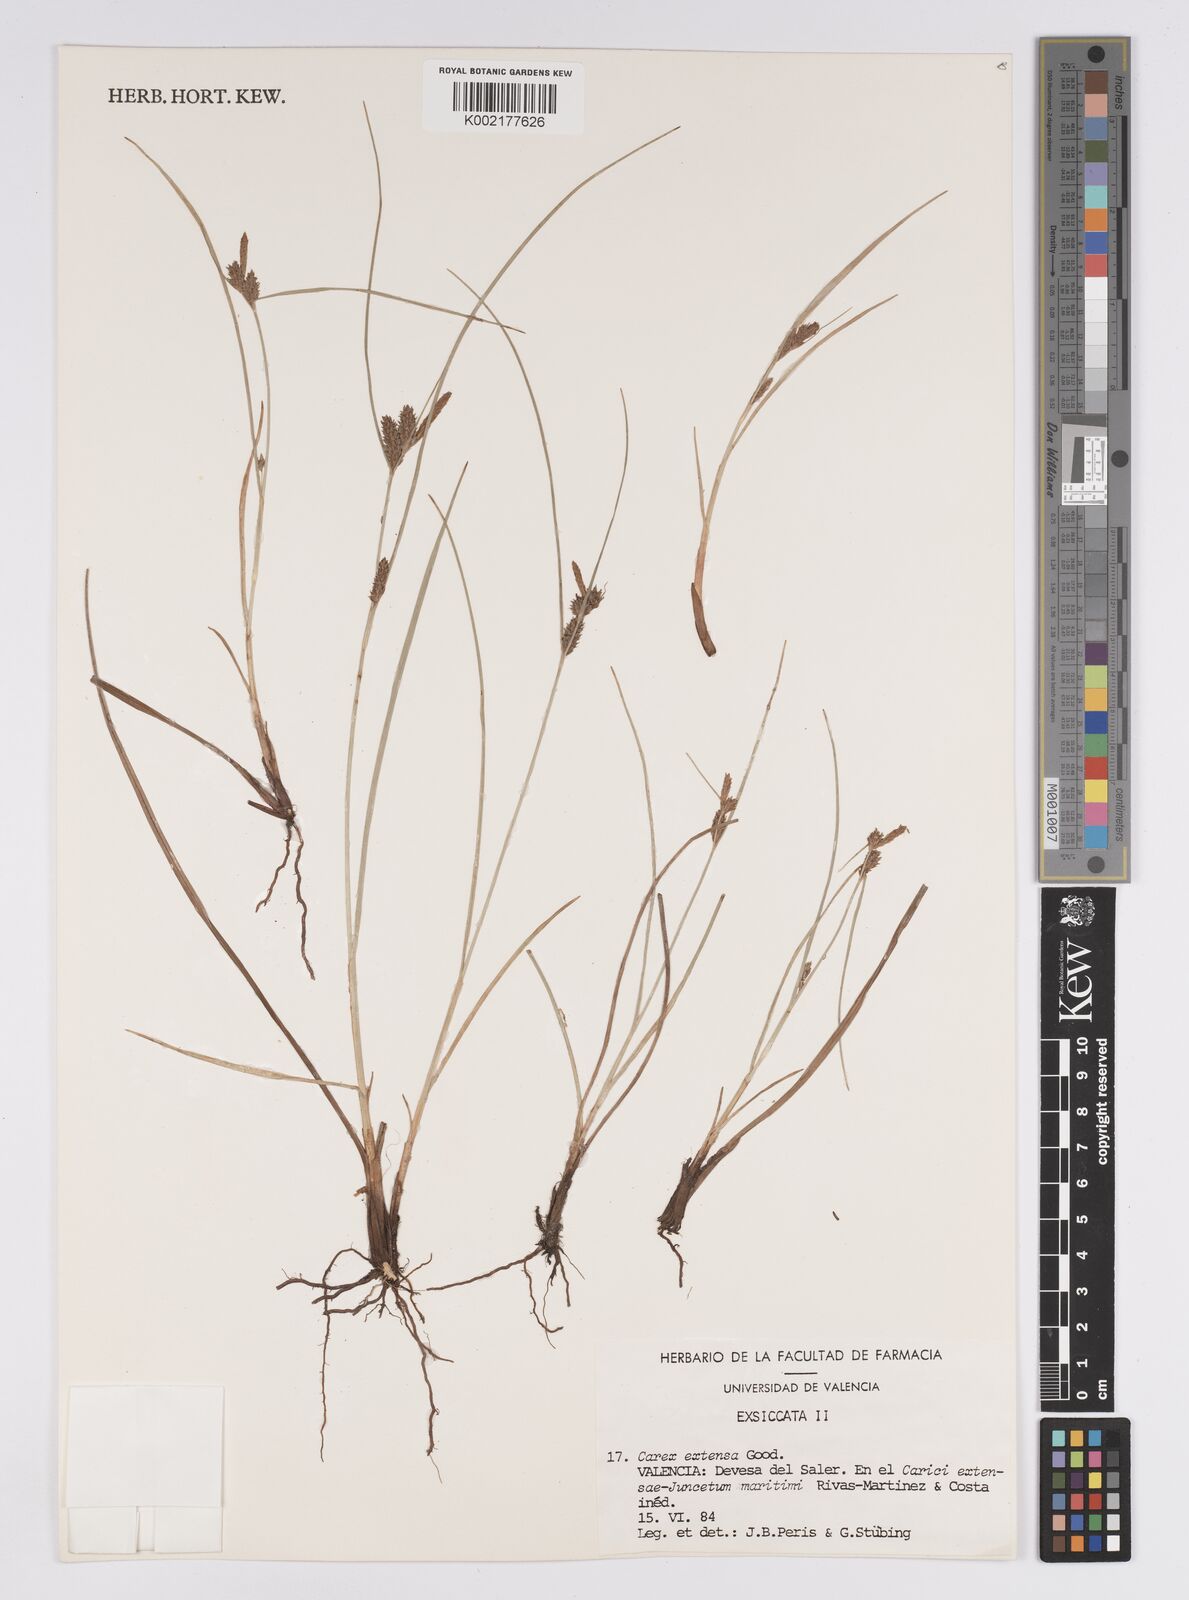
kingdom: Plantae
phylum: Tracheophyta
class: Liliopsida
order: Poales
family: Cyperaceae
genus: Carex
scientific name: Carex extensa
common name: Long-bracted sedge
